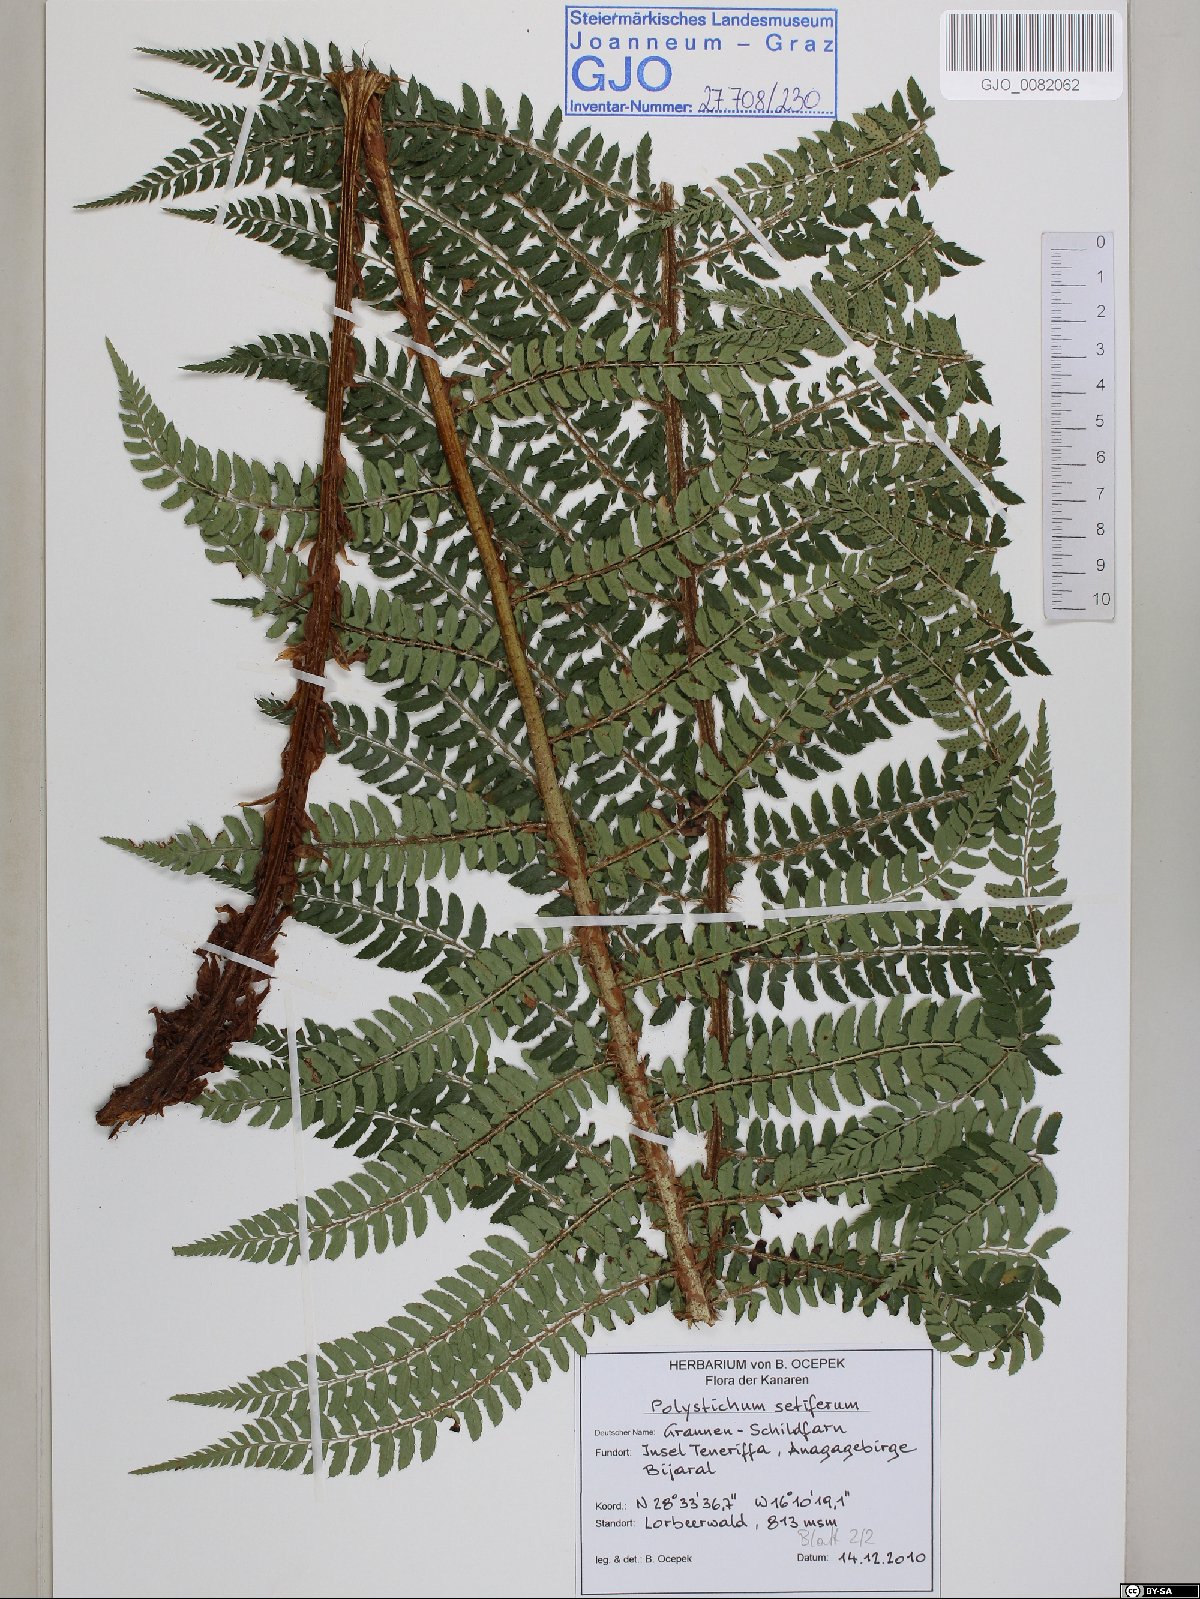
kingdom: Plantae
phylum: Tracheophyta
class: Polypodiopsida
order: Polypodiales
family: Dryopteridaceae
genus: Polystichum
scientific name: Polystichum setiferum
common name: Soft shield-fern
